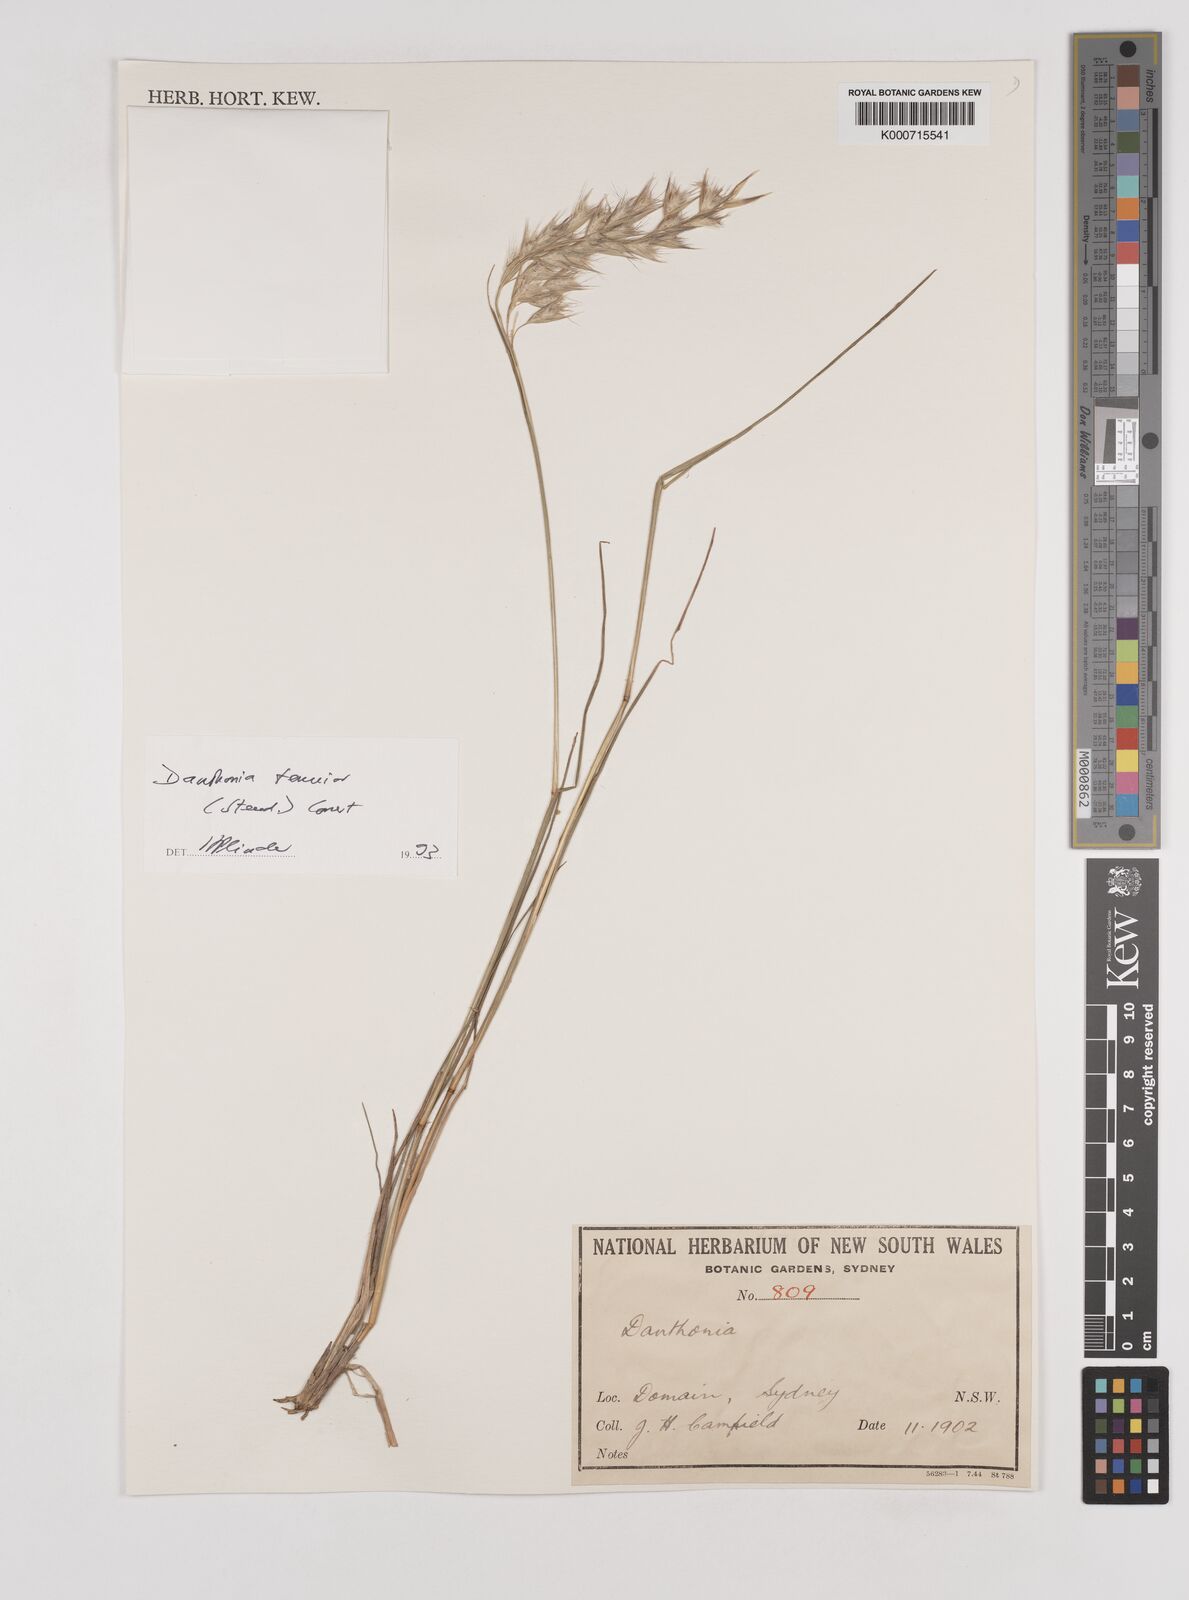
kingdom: Plantae
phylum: Tracheophyta
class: Liliopsida
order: Poales
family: Poaceae
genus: Rytidosperma
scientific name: Rytidosperma tenuius
